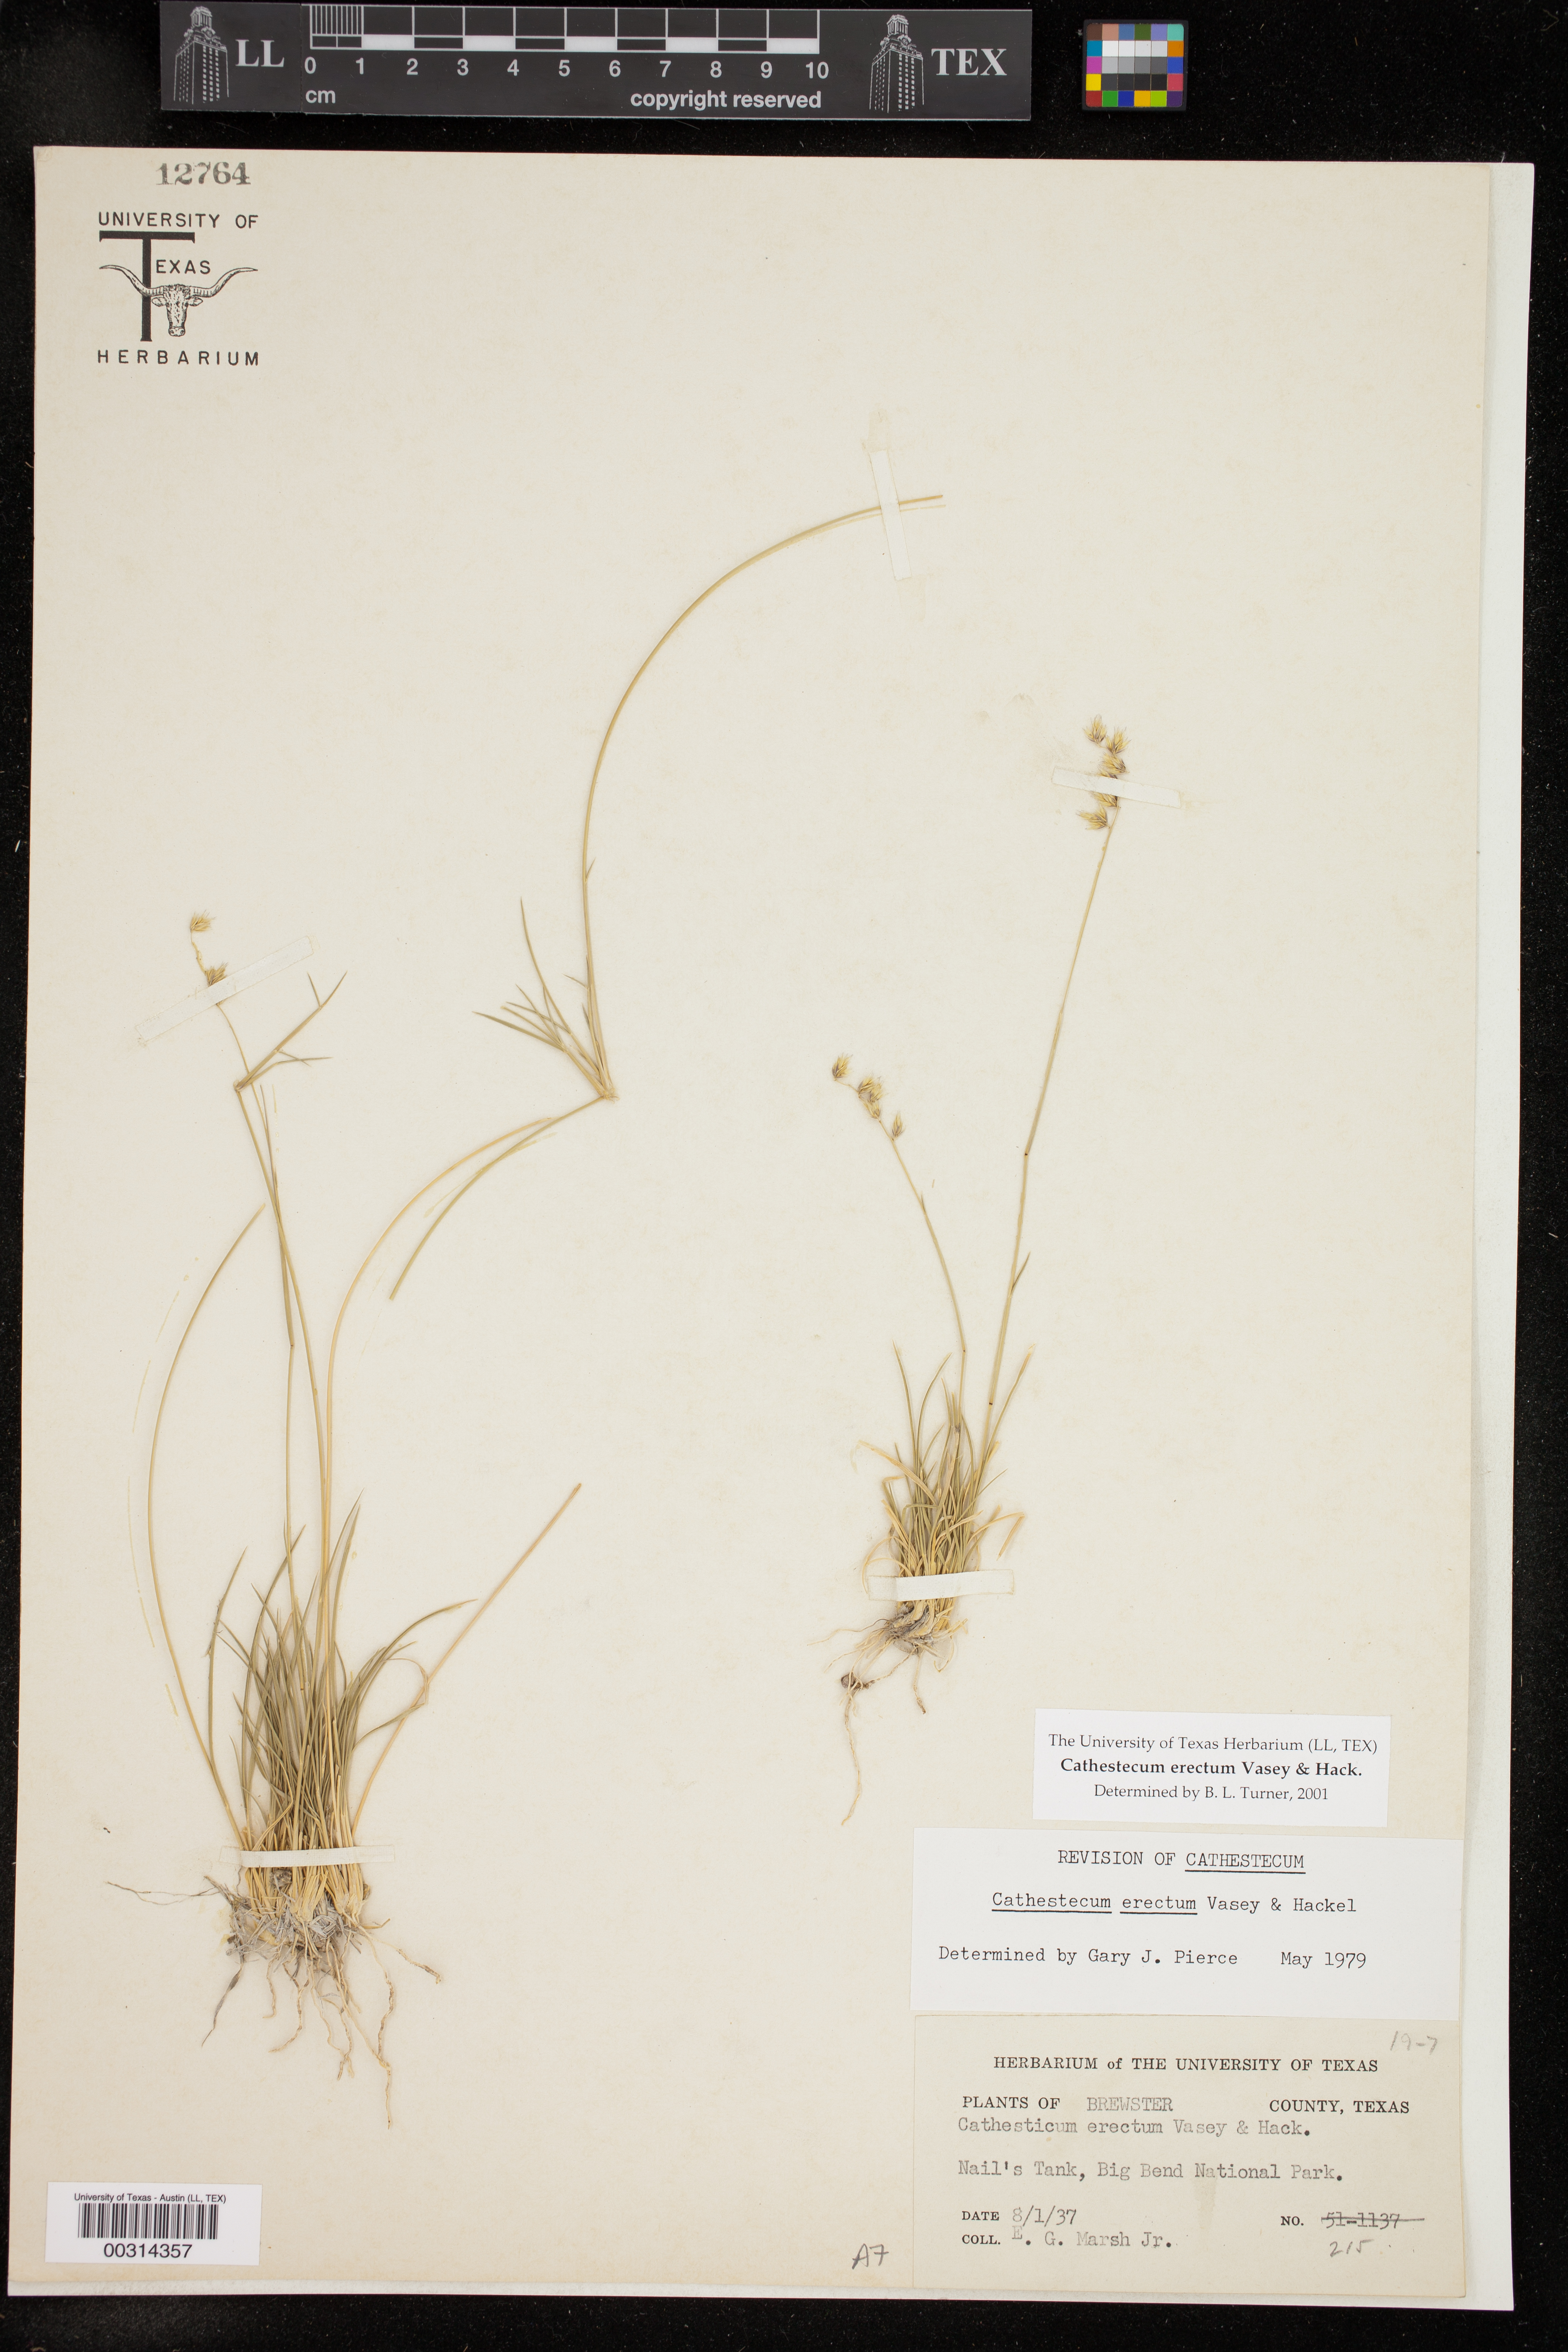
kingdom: Plantae
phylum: Tracheophyta
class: Liliopsida
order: Poales
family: Poaceae
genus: Bouteloua
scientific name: Bouteloua erecta
